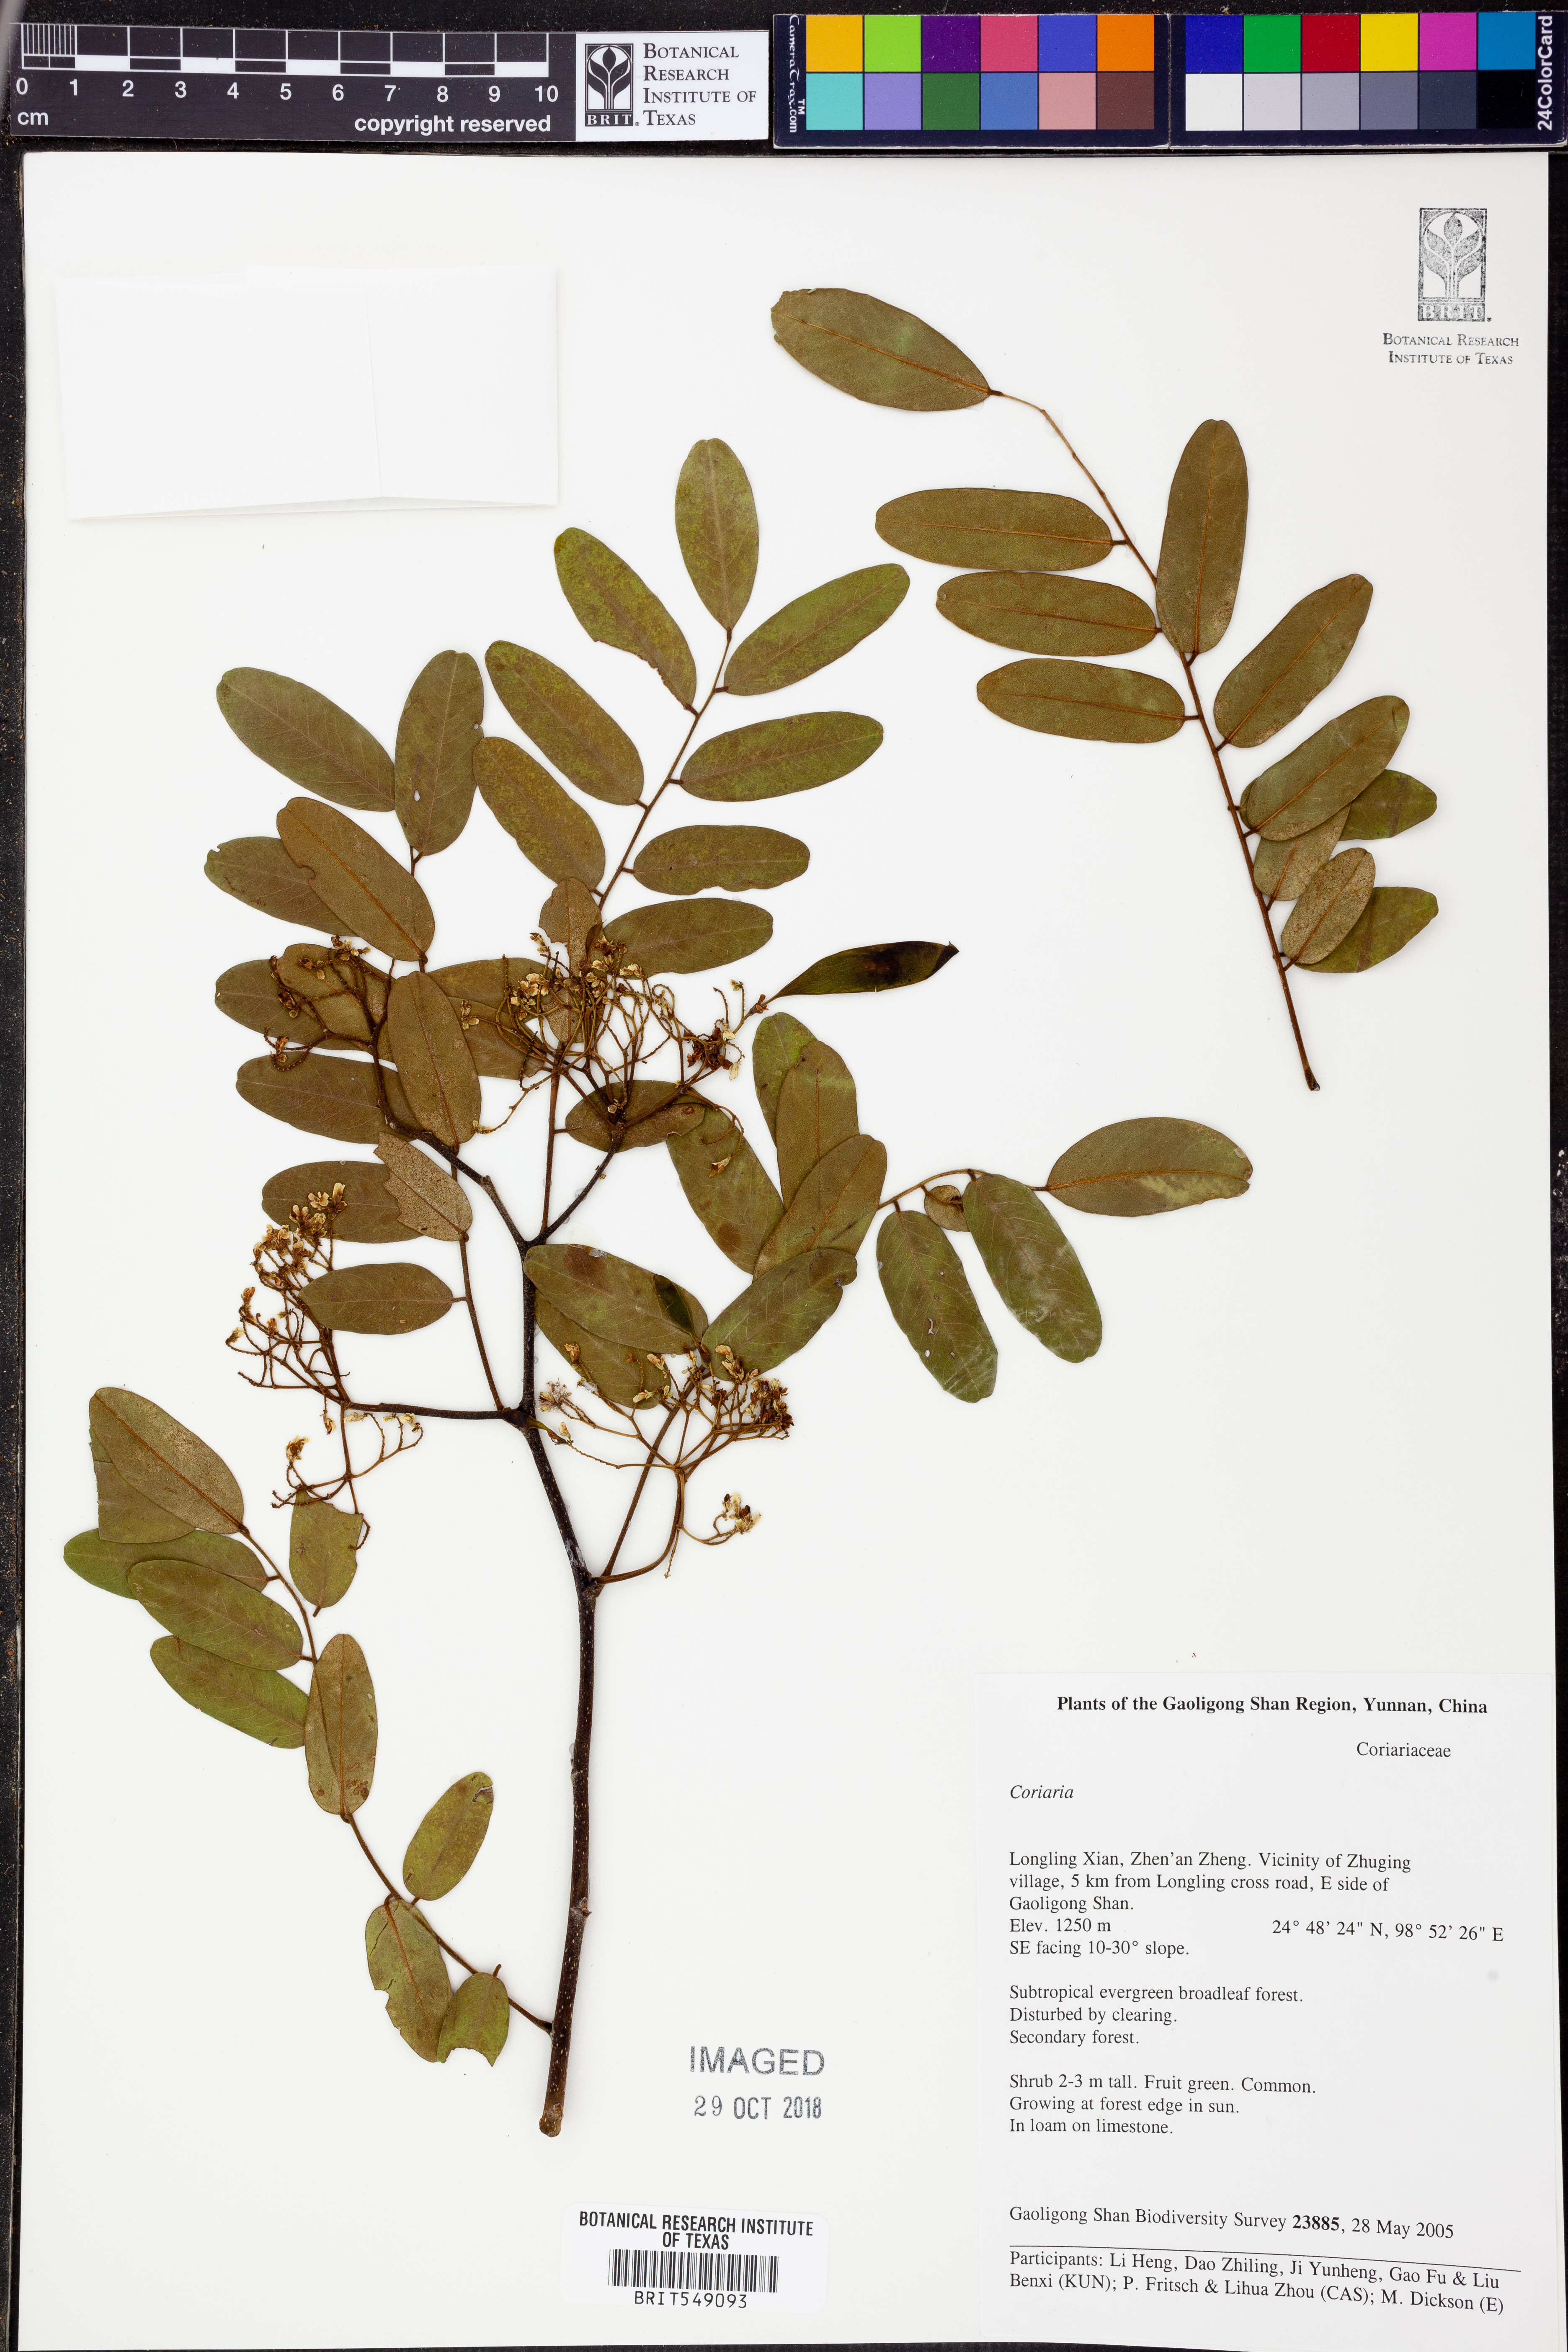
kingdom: Plantae
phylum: Tracheophyta
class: Magnoliopsida
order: Fabales
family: Fabaceae
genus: Dalbergia
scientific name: Dalbergia yunnanensis
